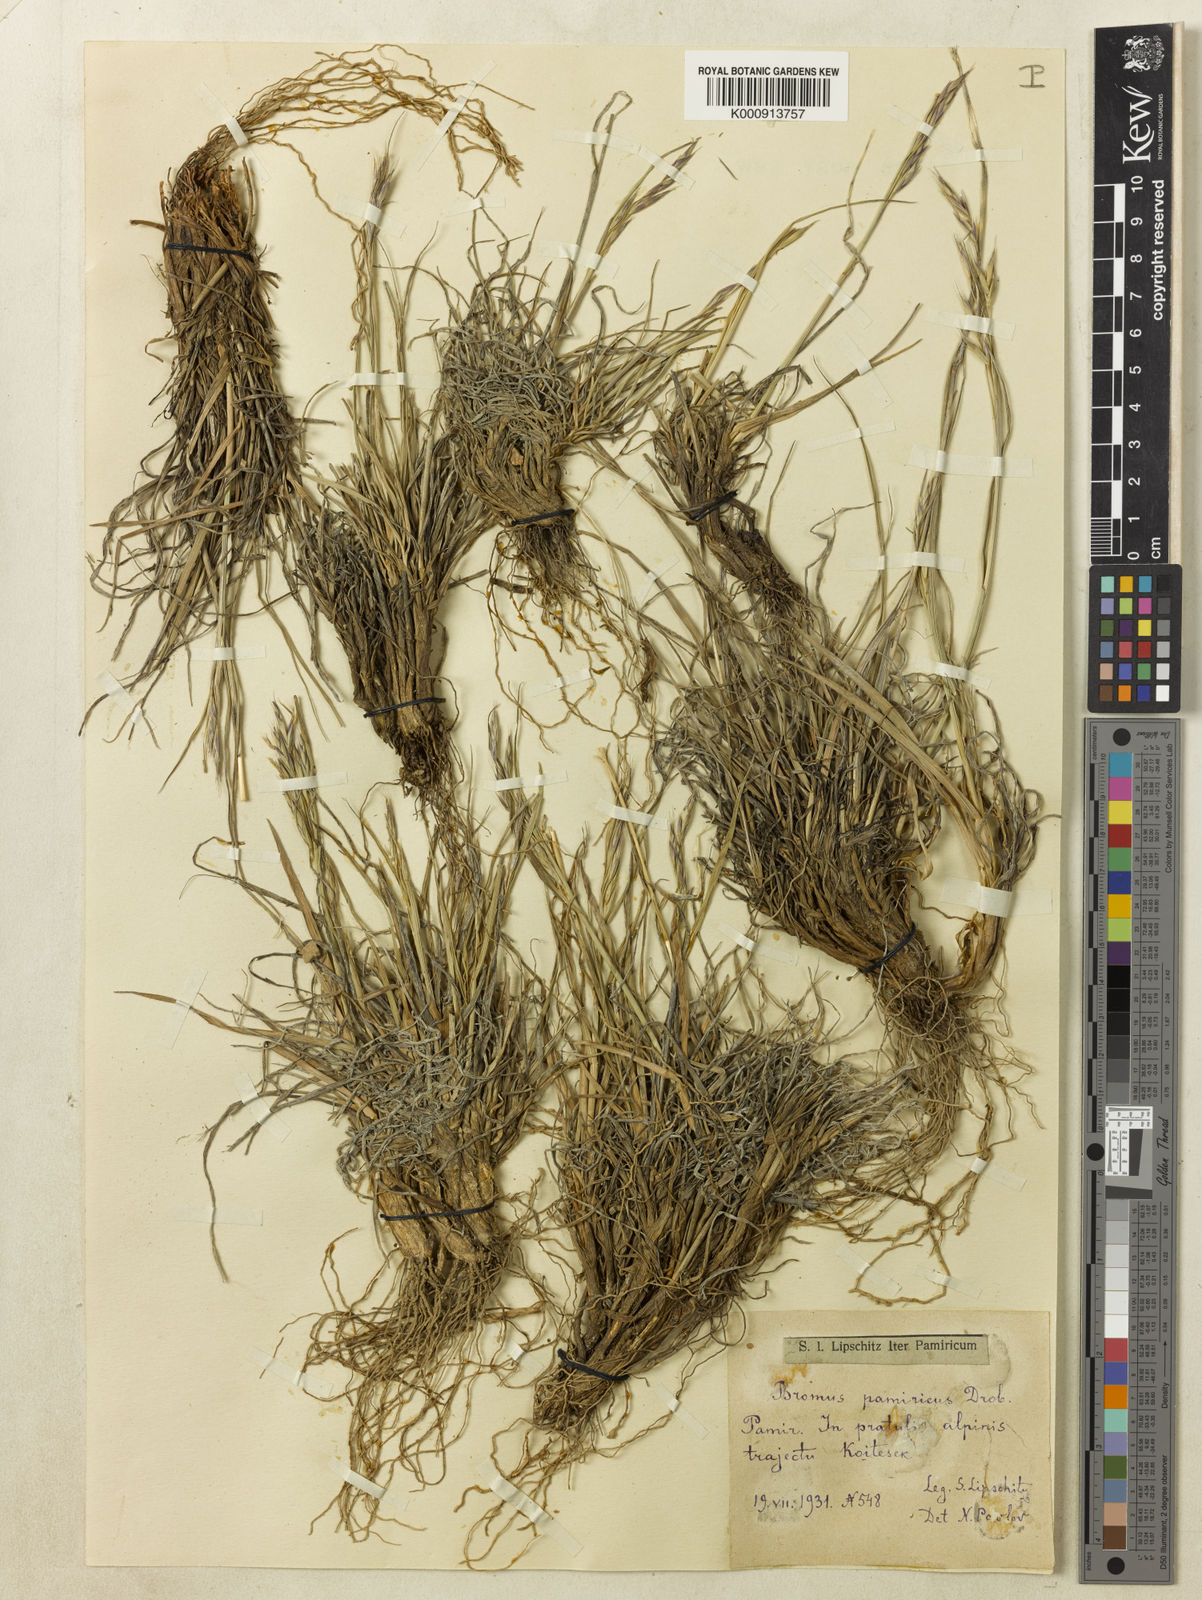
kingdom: Plantae
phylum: Tracheophyta
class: Liliopsida
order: Poales
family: Poaceae
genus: Bromus
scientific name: Bromus paulsenii
